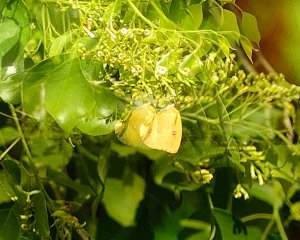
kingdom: Animalia
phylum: Arthropoda
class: Insecta
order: Lepidoptera
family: Pieridae
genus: Phoebis
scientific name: Phoebis sennae
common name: Cloudless Sulphur
